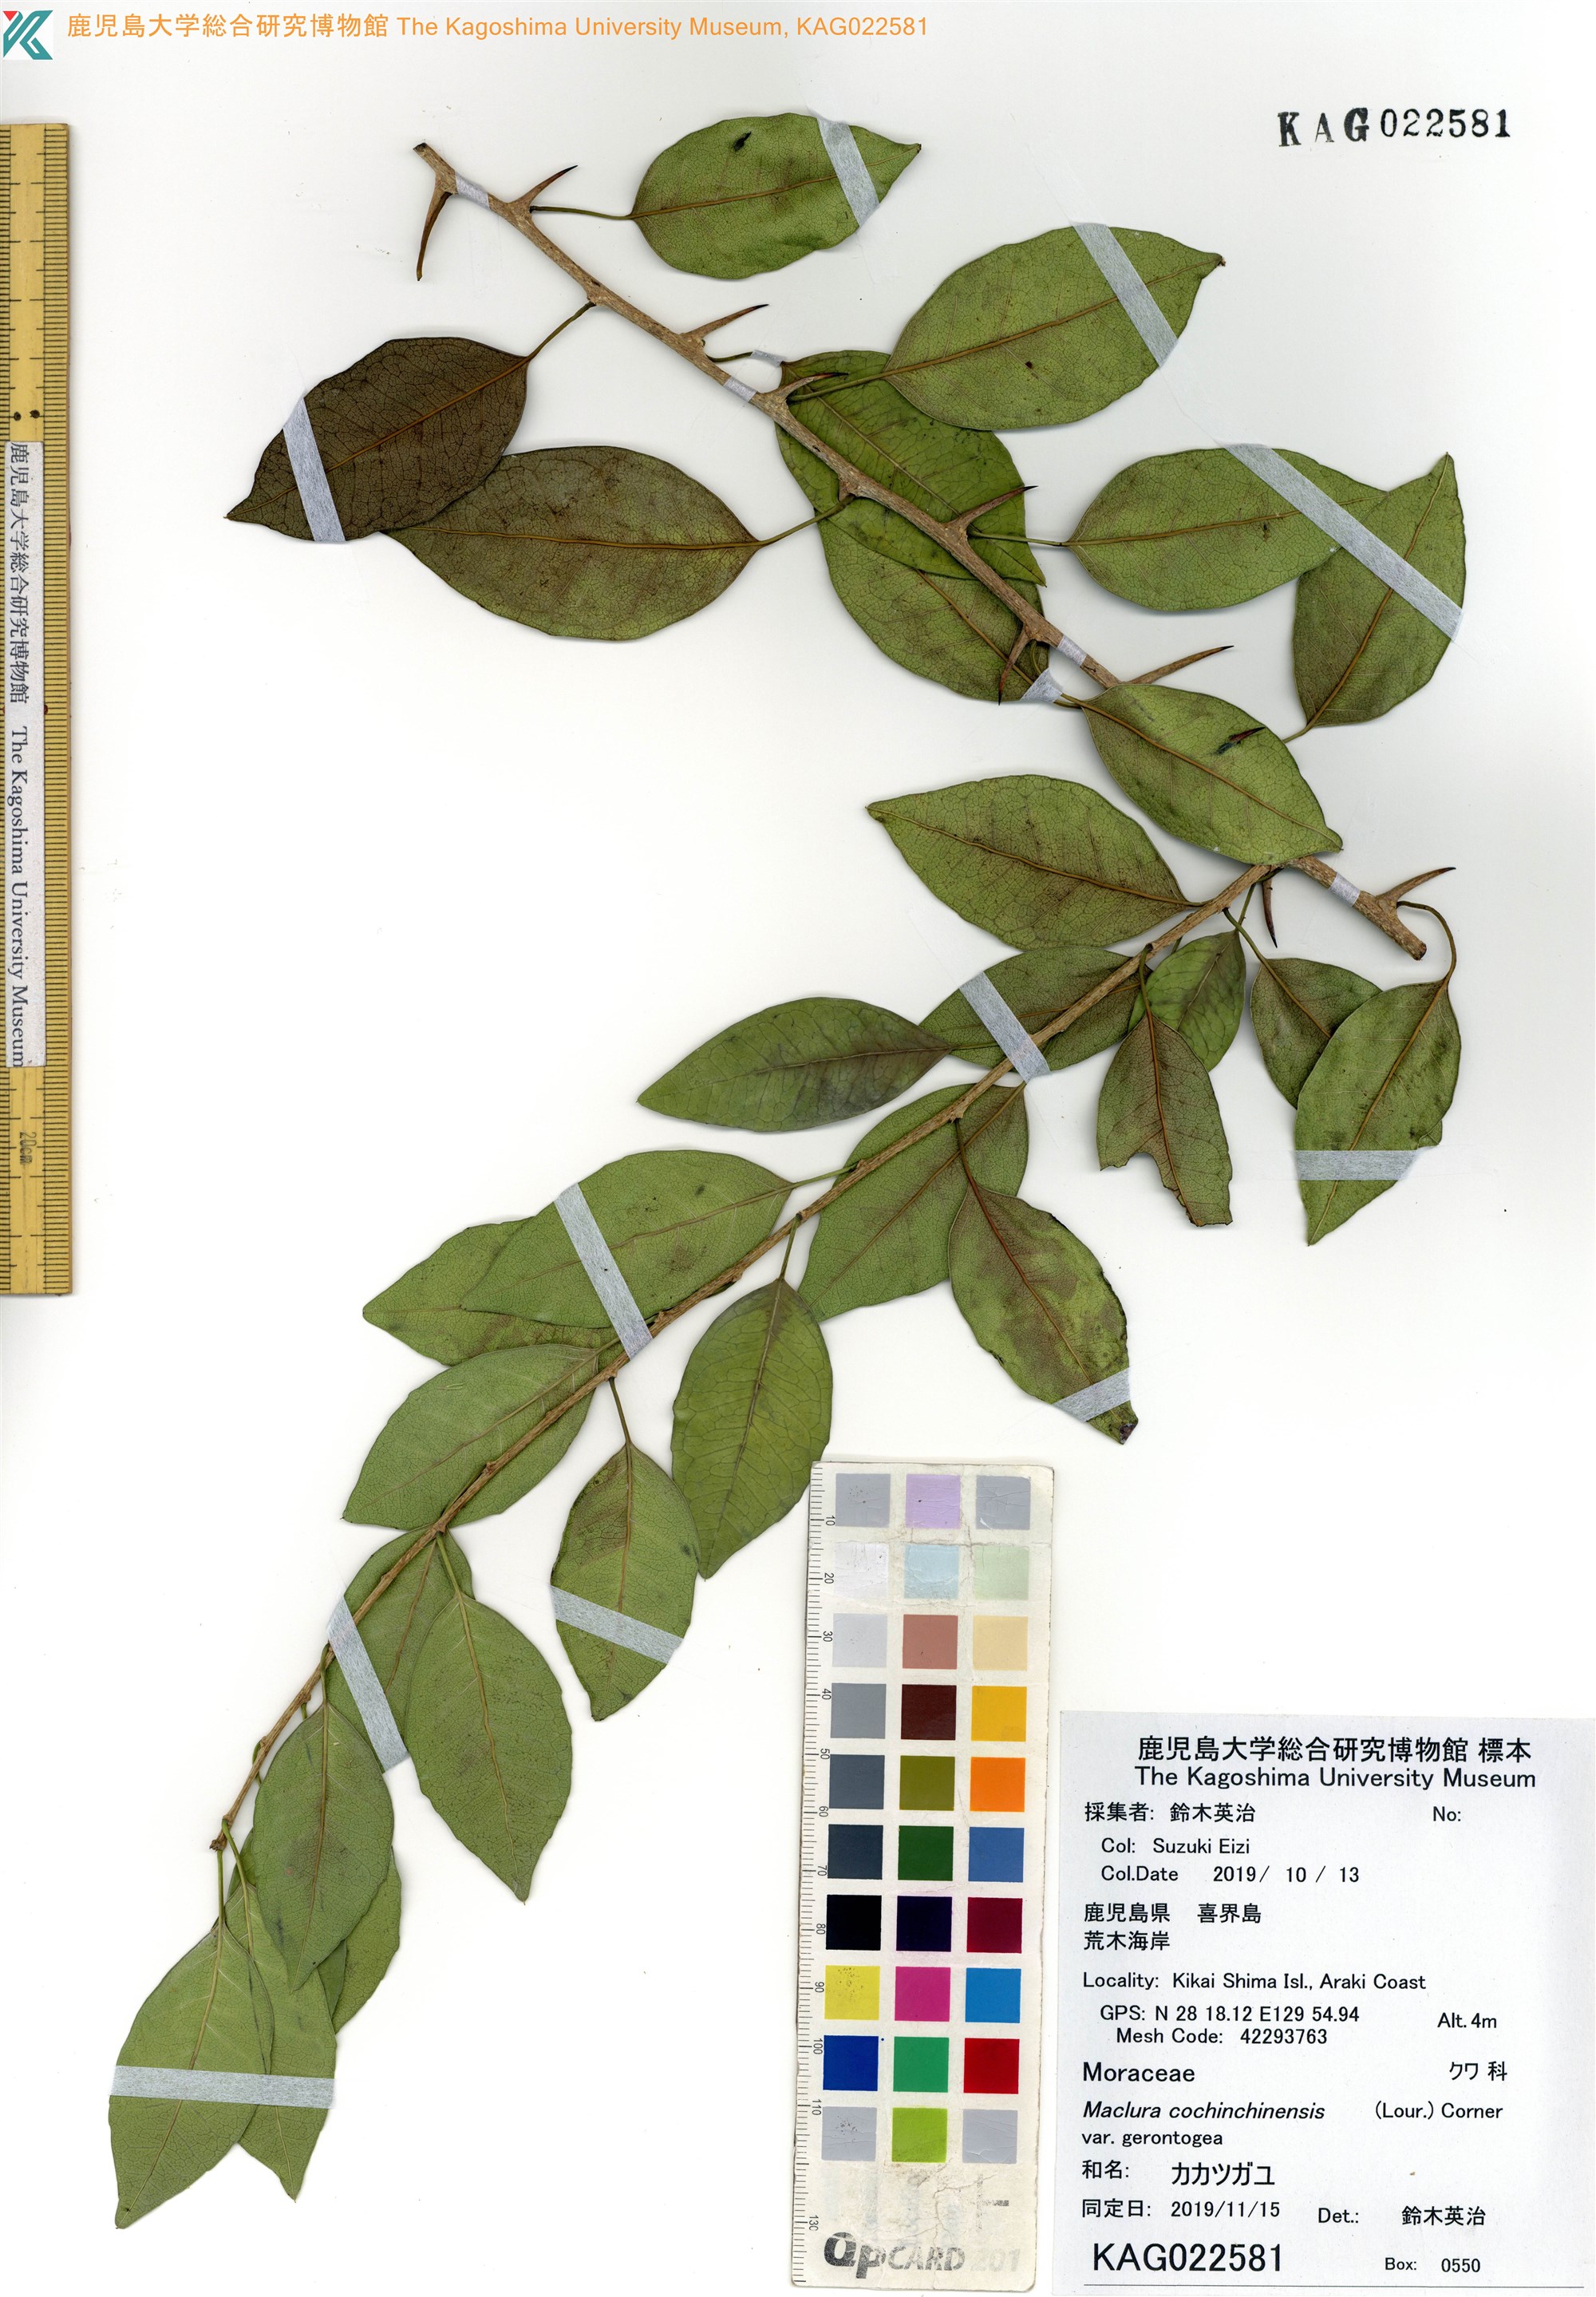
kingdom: Plantae
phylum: Tracheophyta
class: Magnoliopsida
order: Rosales
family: Moraceae
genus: Maclura
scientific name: Maclura cochinchinensis
